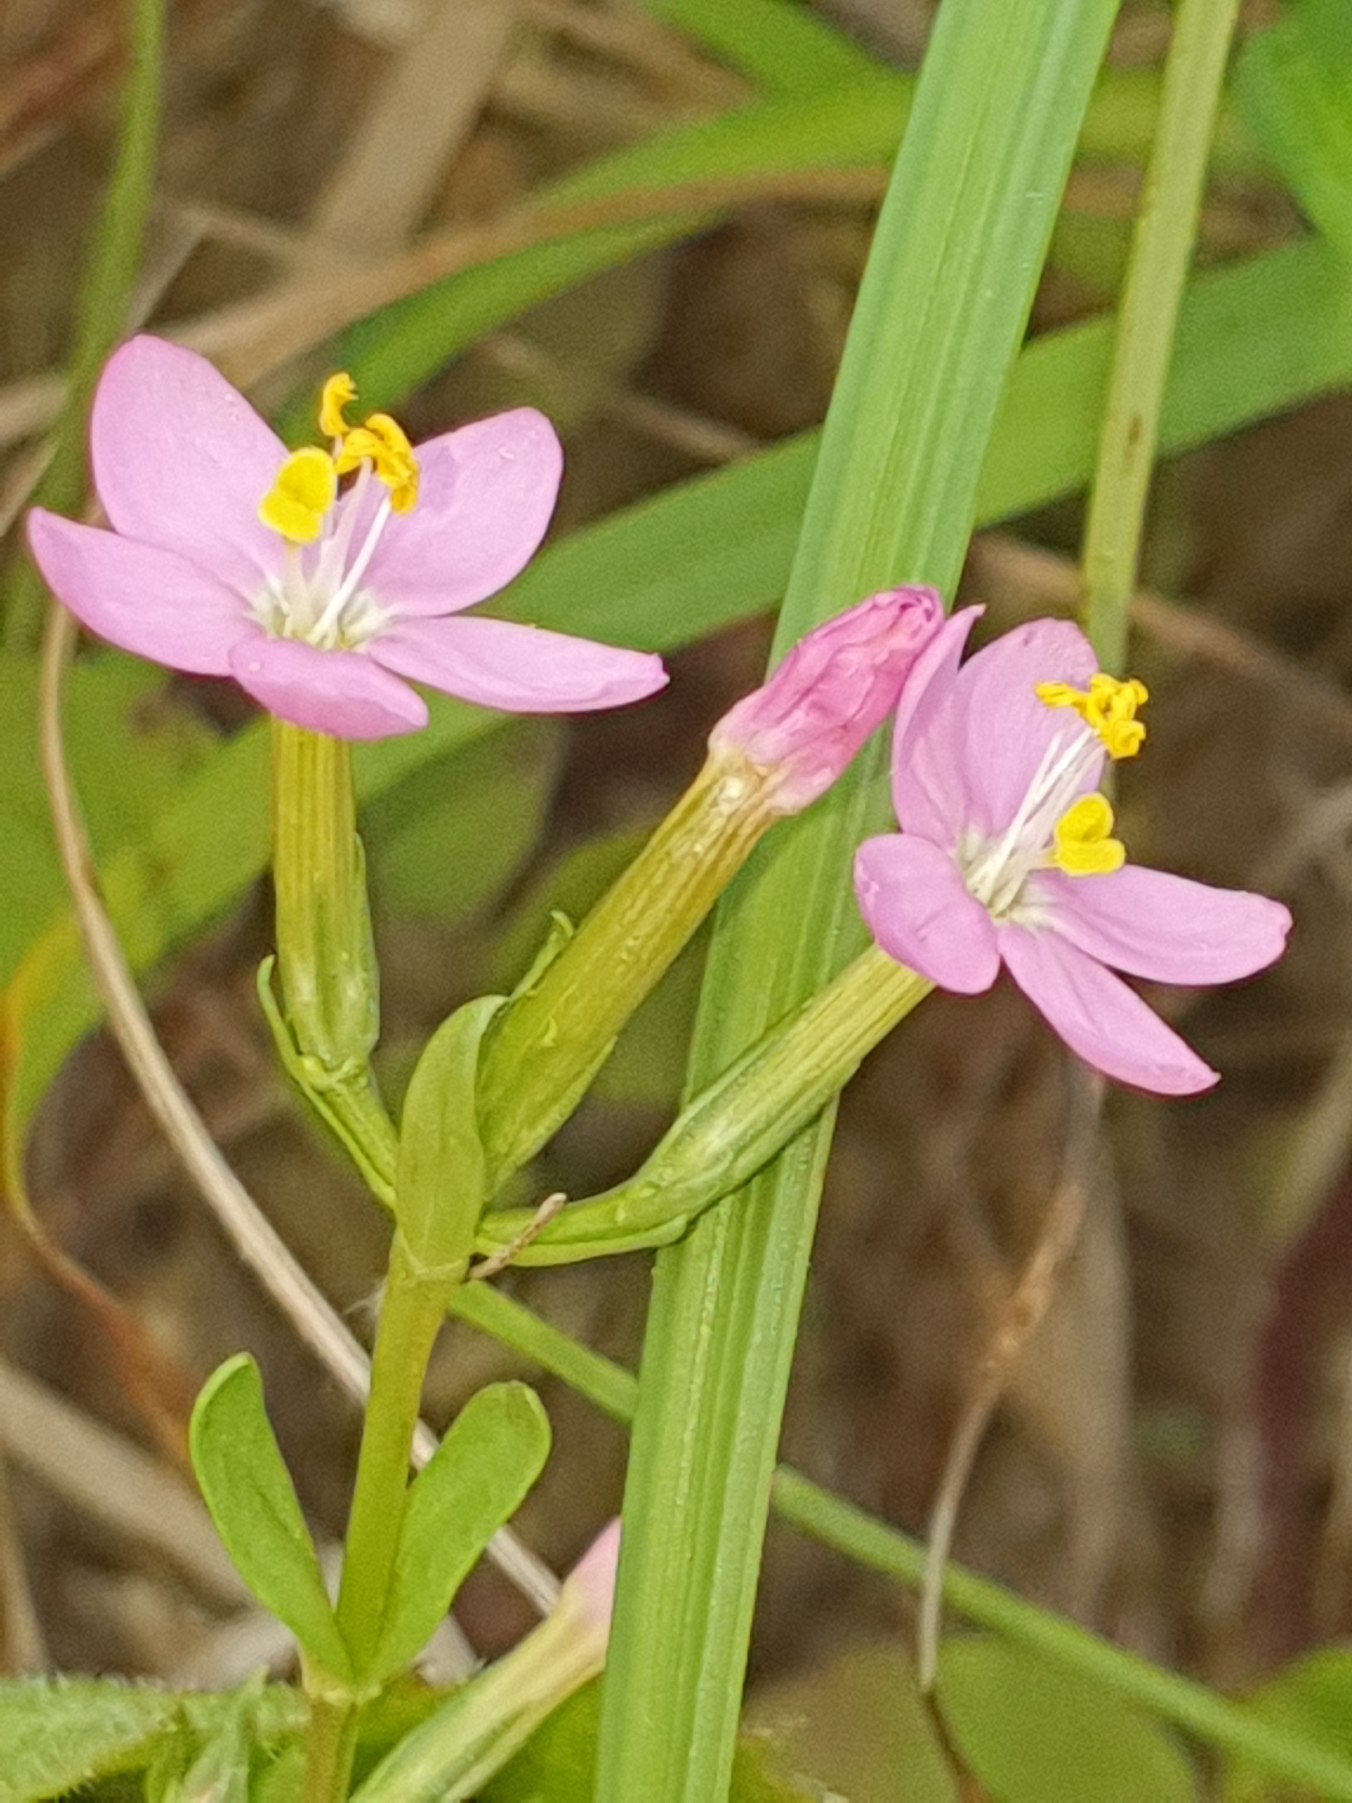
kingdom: Plantae
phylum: Tracheophyta
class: Magnoliopsida
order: Gentianales
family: Gentianaceae
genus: Centaurium
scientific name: Centaurium erythraea
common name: Mark-tusindgylden
